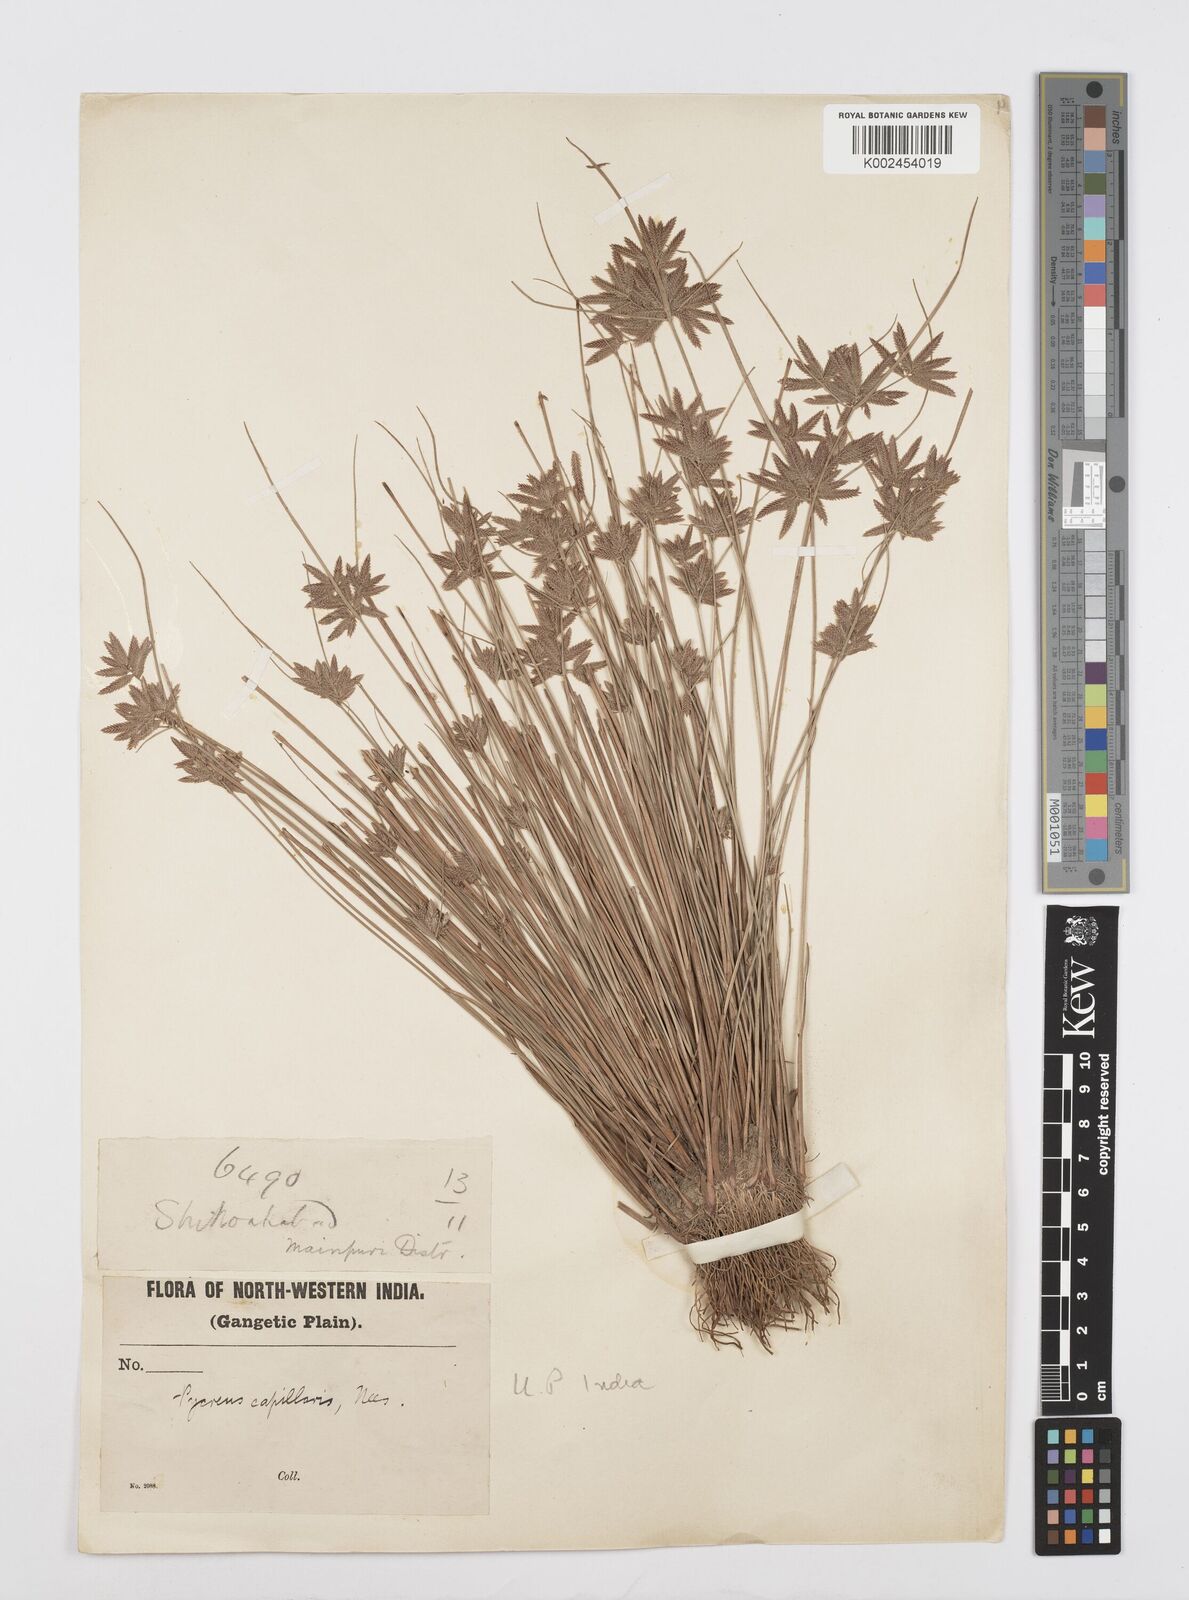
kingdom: Plantae
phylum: Tracheophyta
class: Liliopsida
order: Poales
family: Cyperaceae
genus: Cyperus
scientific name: Cyperus flavidus
